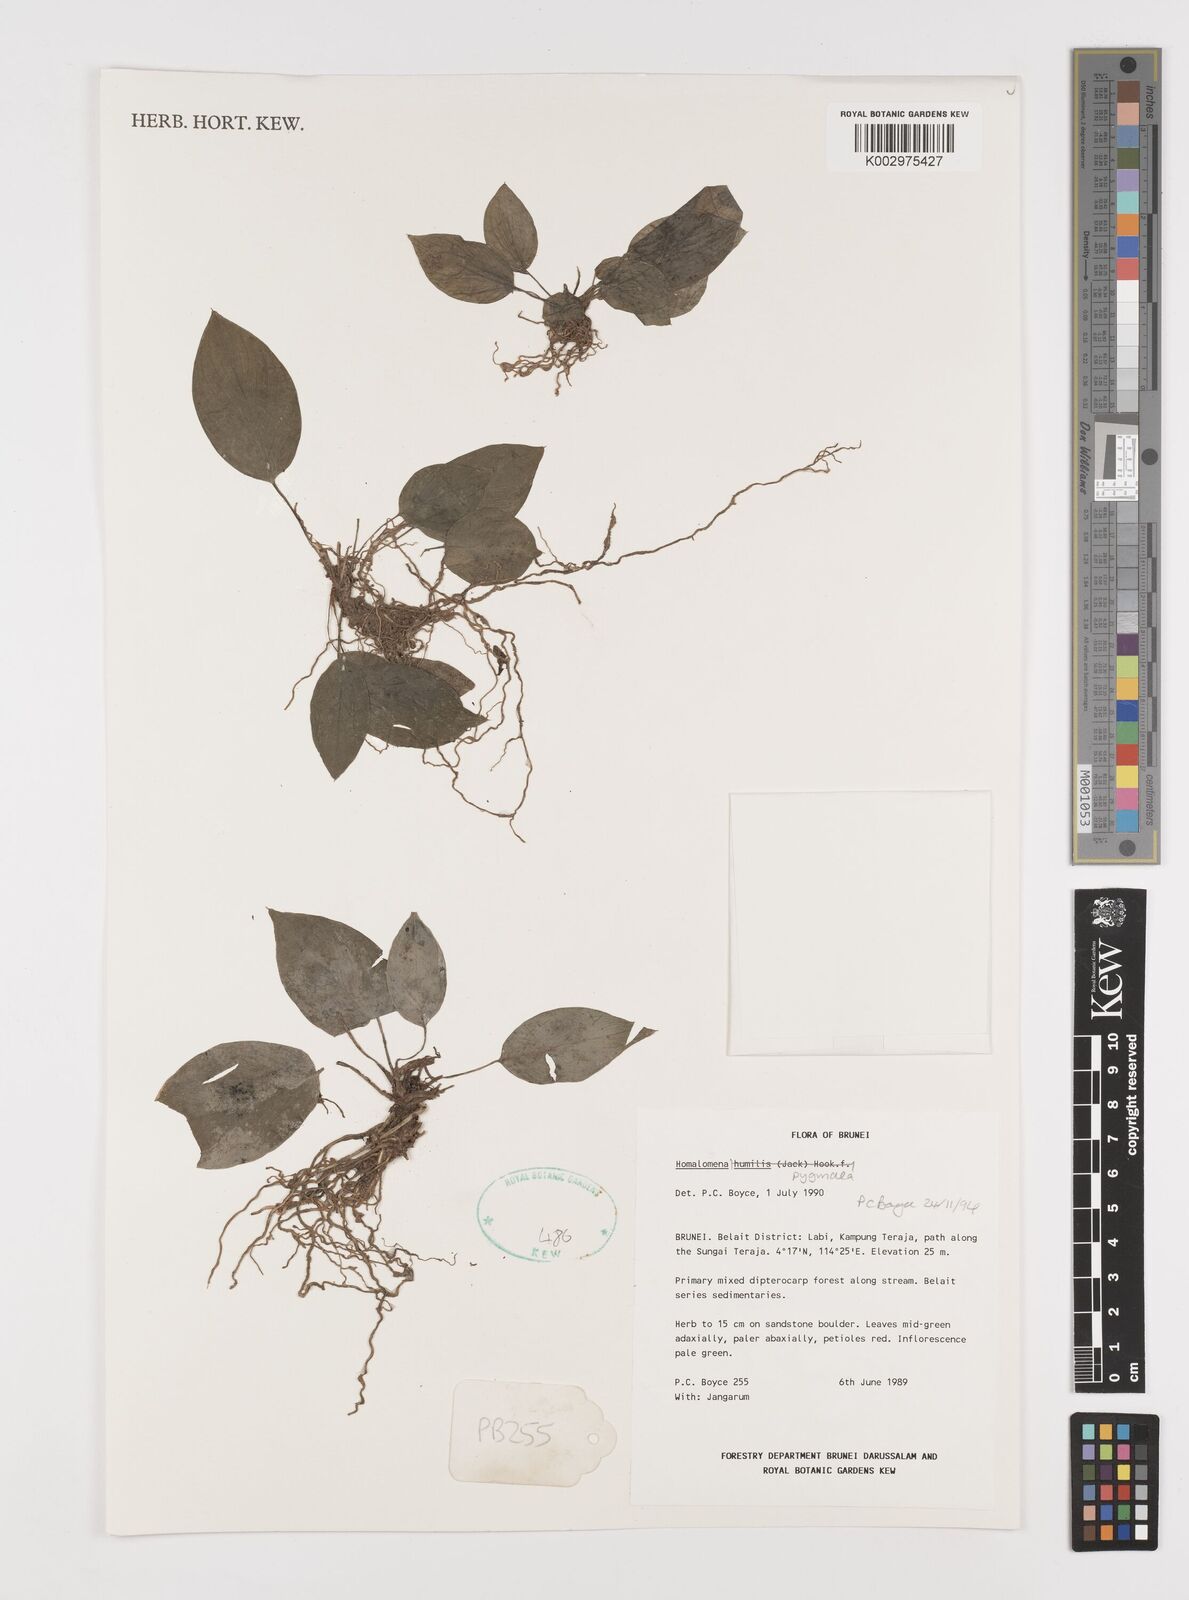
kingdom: Plantae
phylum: Tracheophyta
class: Liliopsida
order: Alismatales
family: Araceae
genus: Homalomena
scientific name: Homalomena humilis
